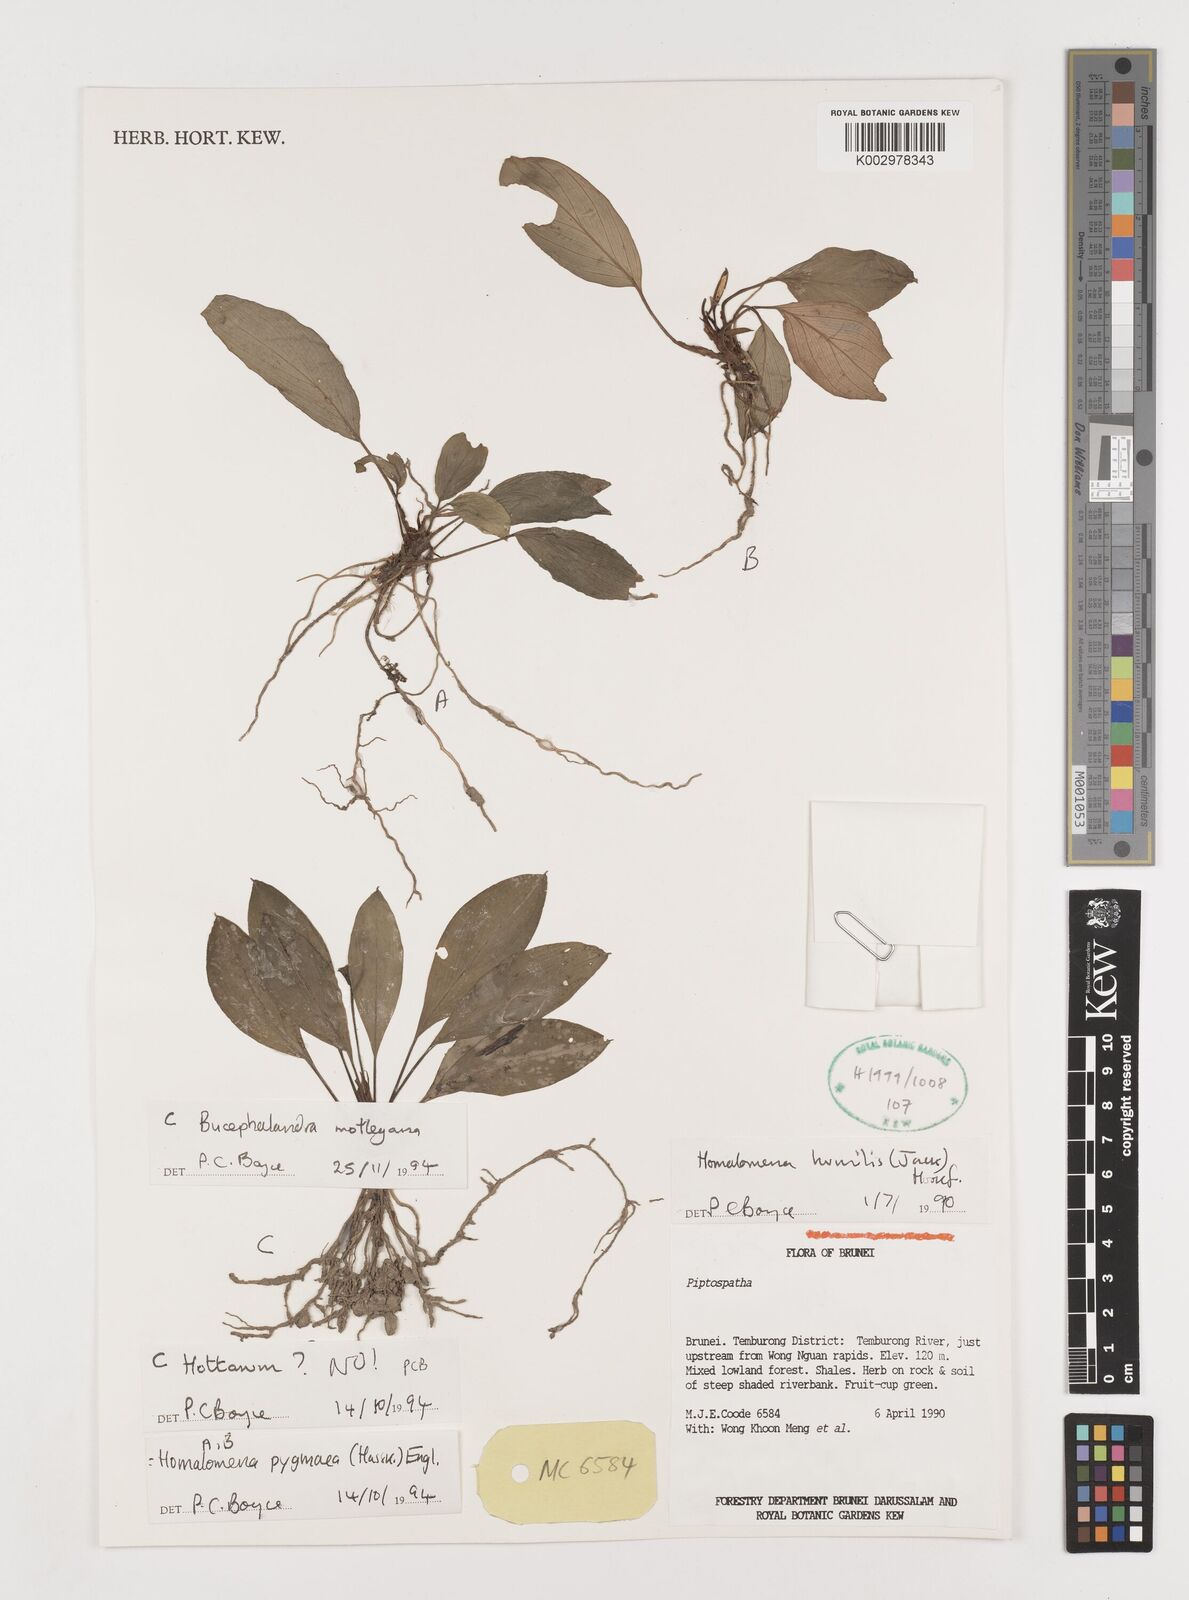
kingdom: Plantae
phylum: Tracheophyta
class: Liliopsida
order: Alismatales
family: Araceae
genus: Bucephalandra
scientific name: Bucephalandra motleyana
